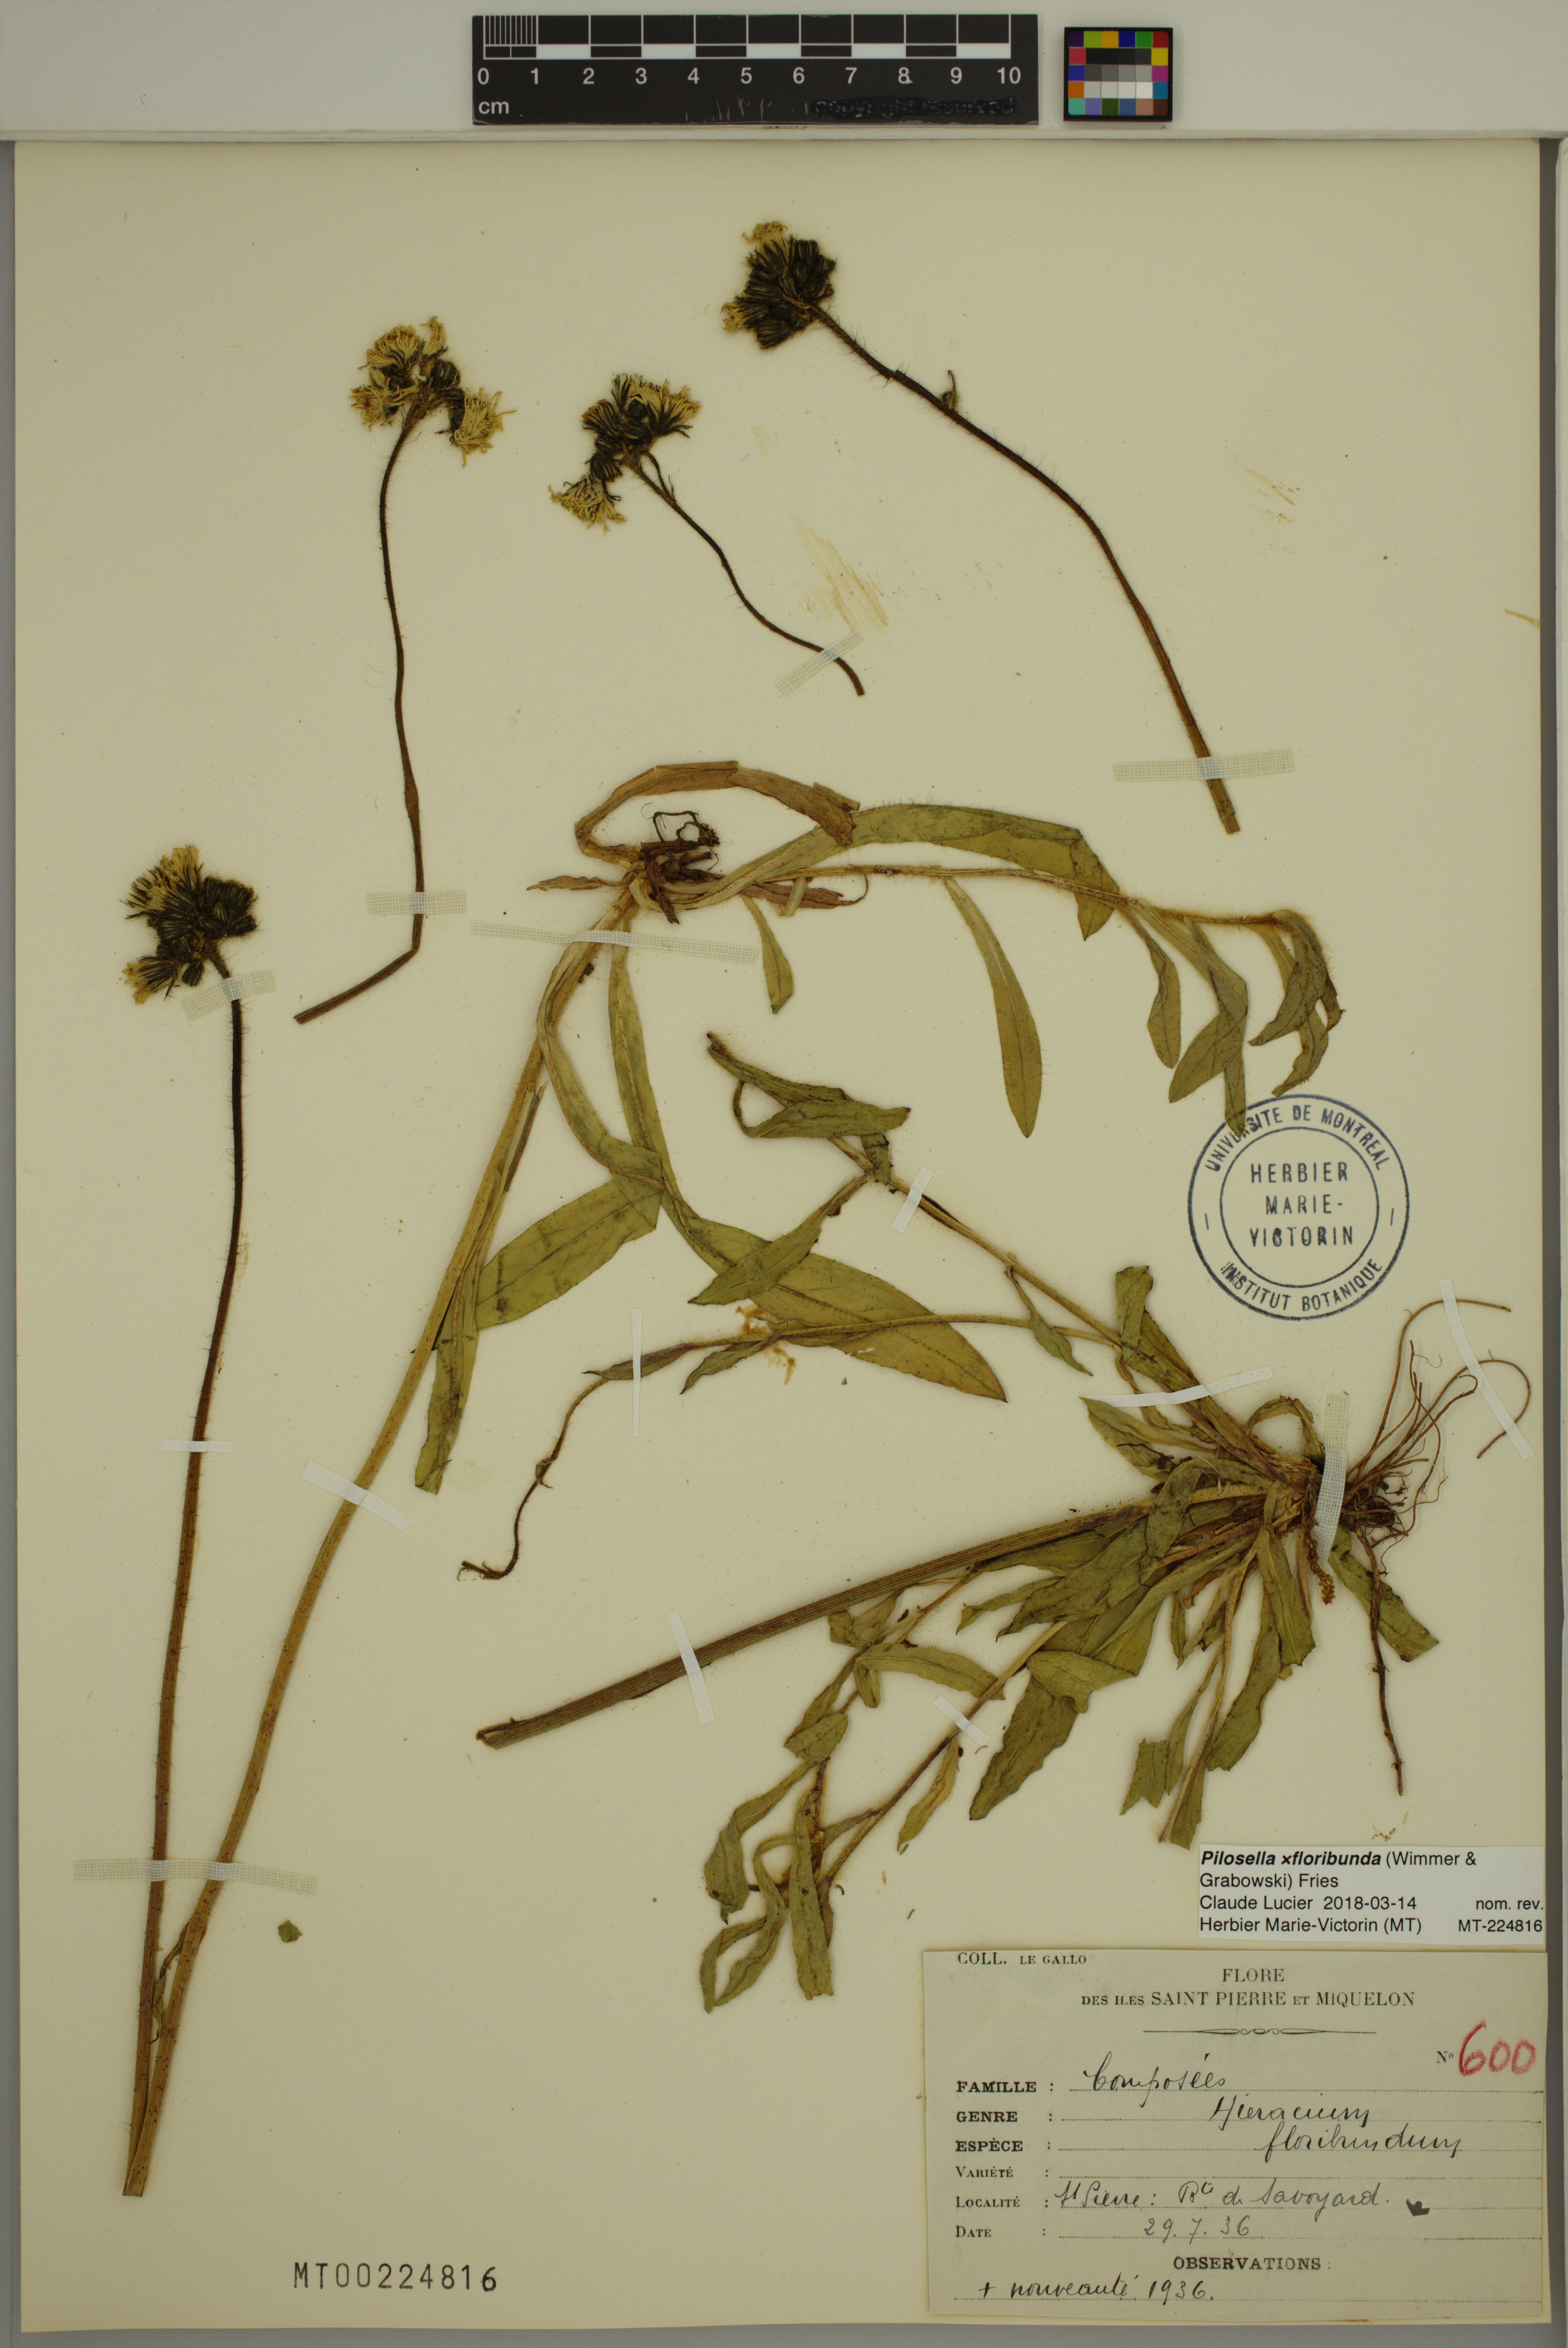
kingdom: Plantae
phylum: Tracheophyta
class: Magnoliopsida
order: Asterales
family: Asteraceae
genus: Pilosella
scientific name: Pilosella floribunda
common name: Glaucous hawkweed
